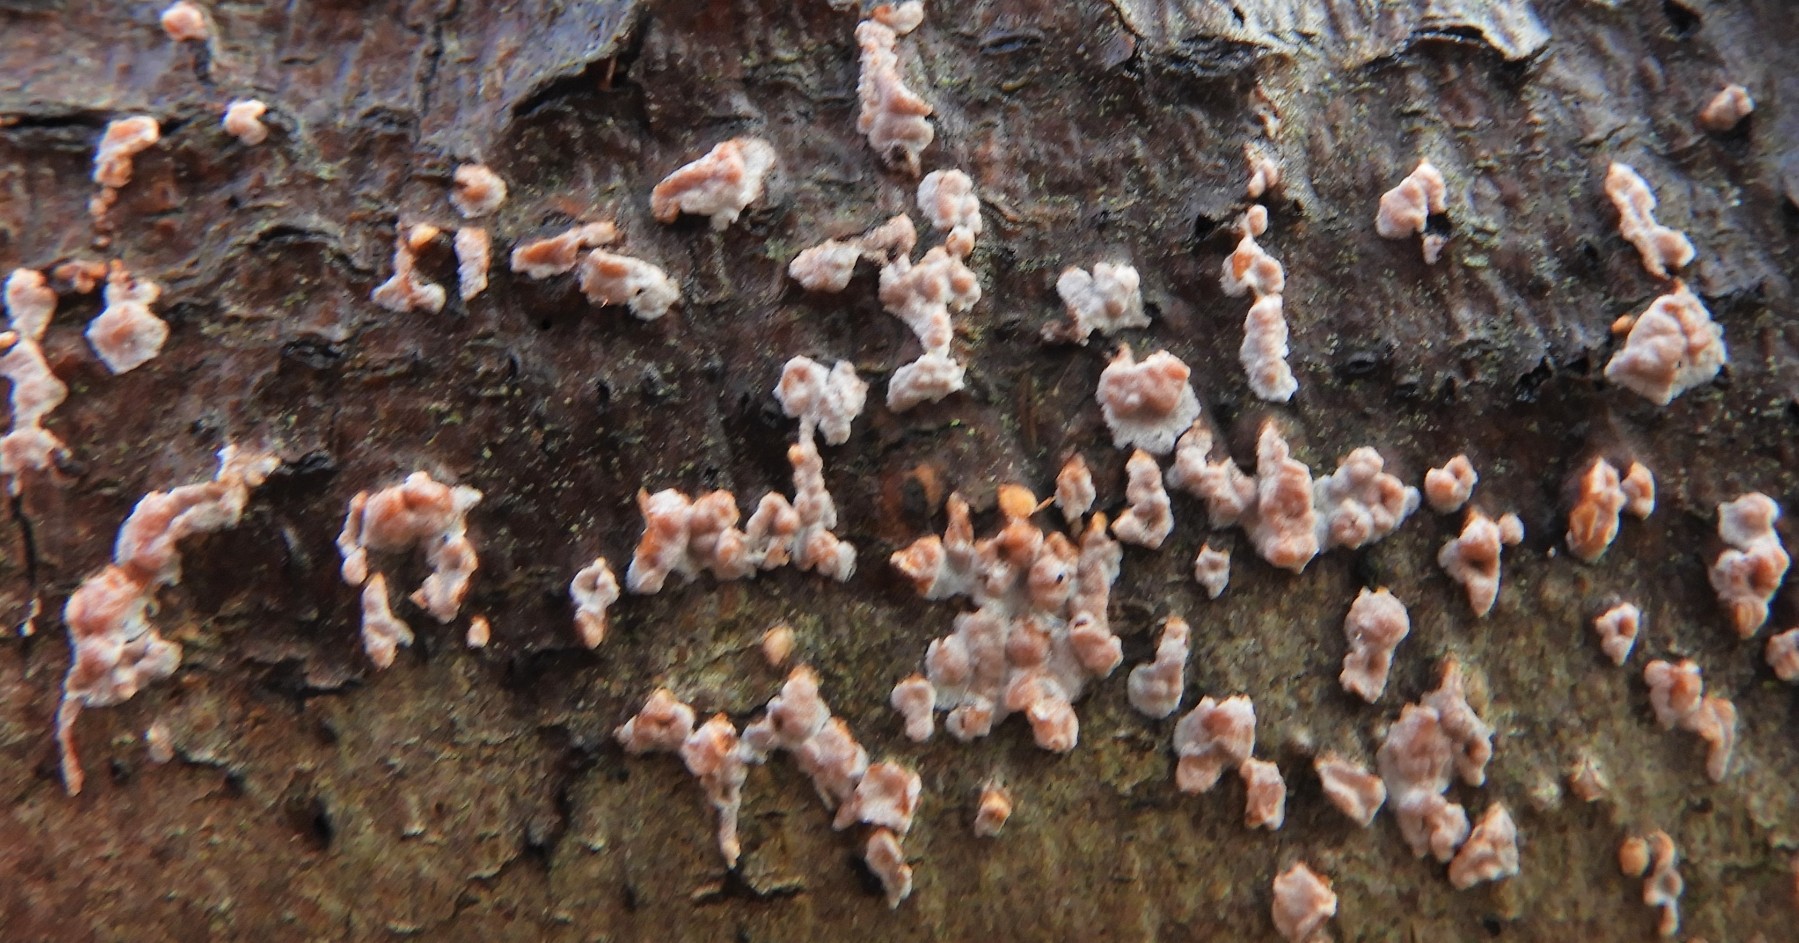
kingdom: Fungi
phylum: Basidiomycota
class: Agaricomycetes
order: Russulales
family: Peniophoraceae
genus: Peniophora
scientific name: Peniophora polygonia
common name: polygon-voksskind
